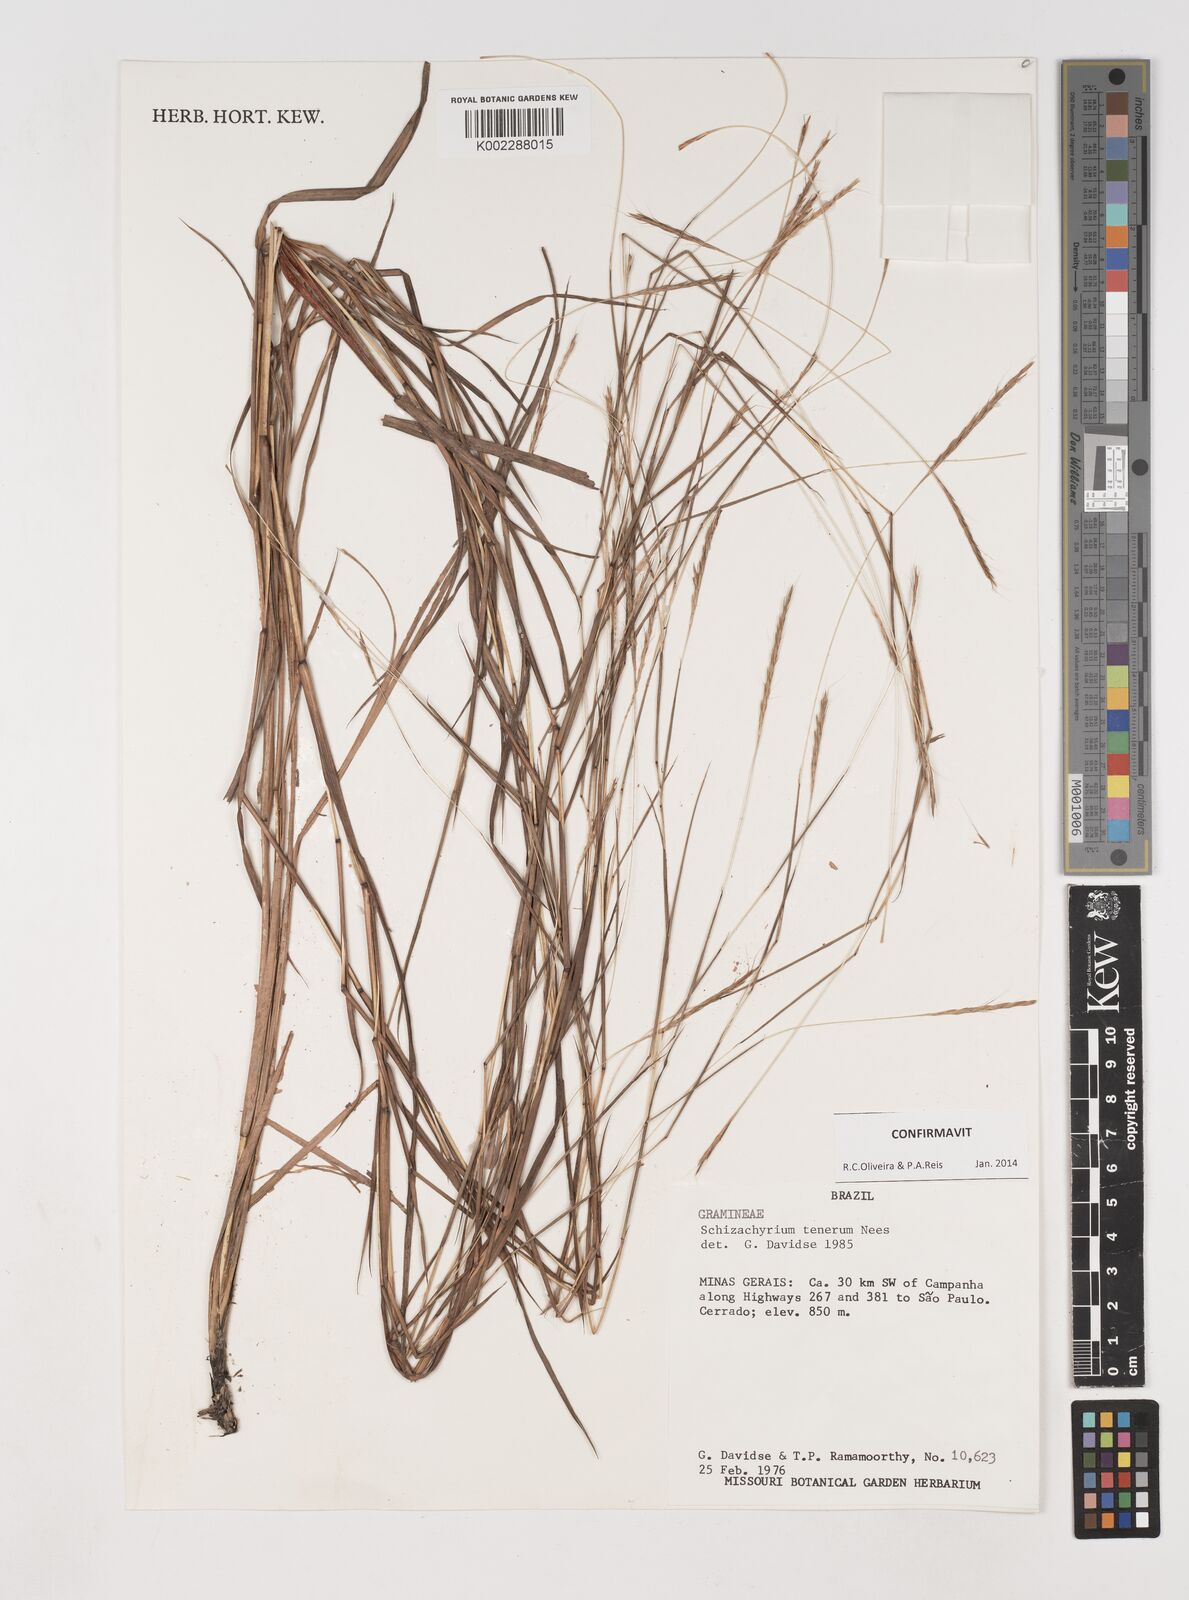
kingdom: Plantae
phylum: Tracheophyta
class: Liliopsida
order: Poales
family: Poaceae
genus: Andropogon
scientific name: Andropogon tener
